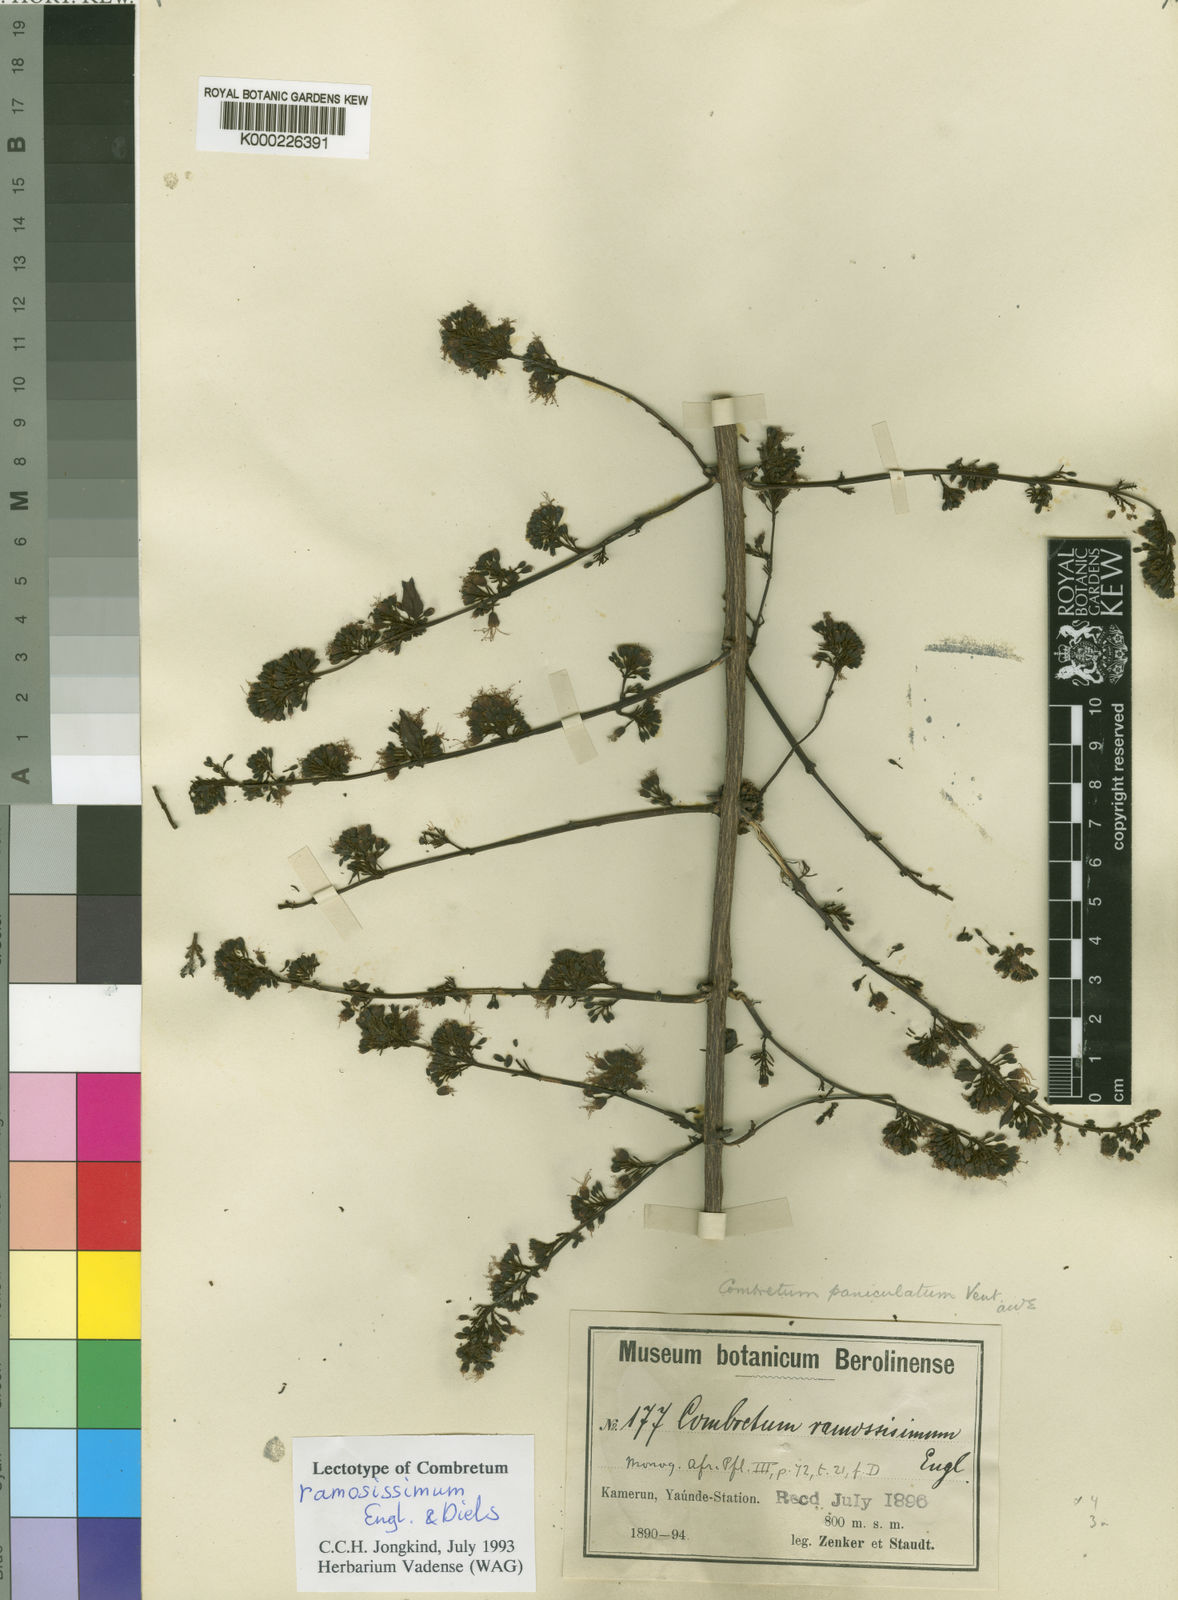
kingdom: Plantae
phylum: Tracheophyta
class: Magnoliopsida
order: Myrtales
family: Combretaceae
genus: Combretum
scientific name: Combretum paniculatum
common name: Fire vine
